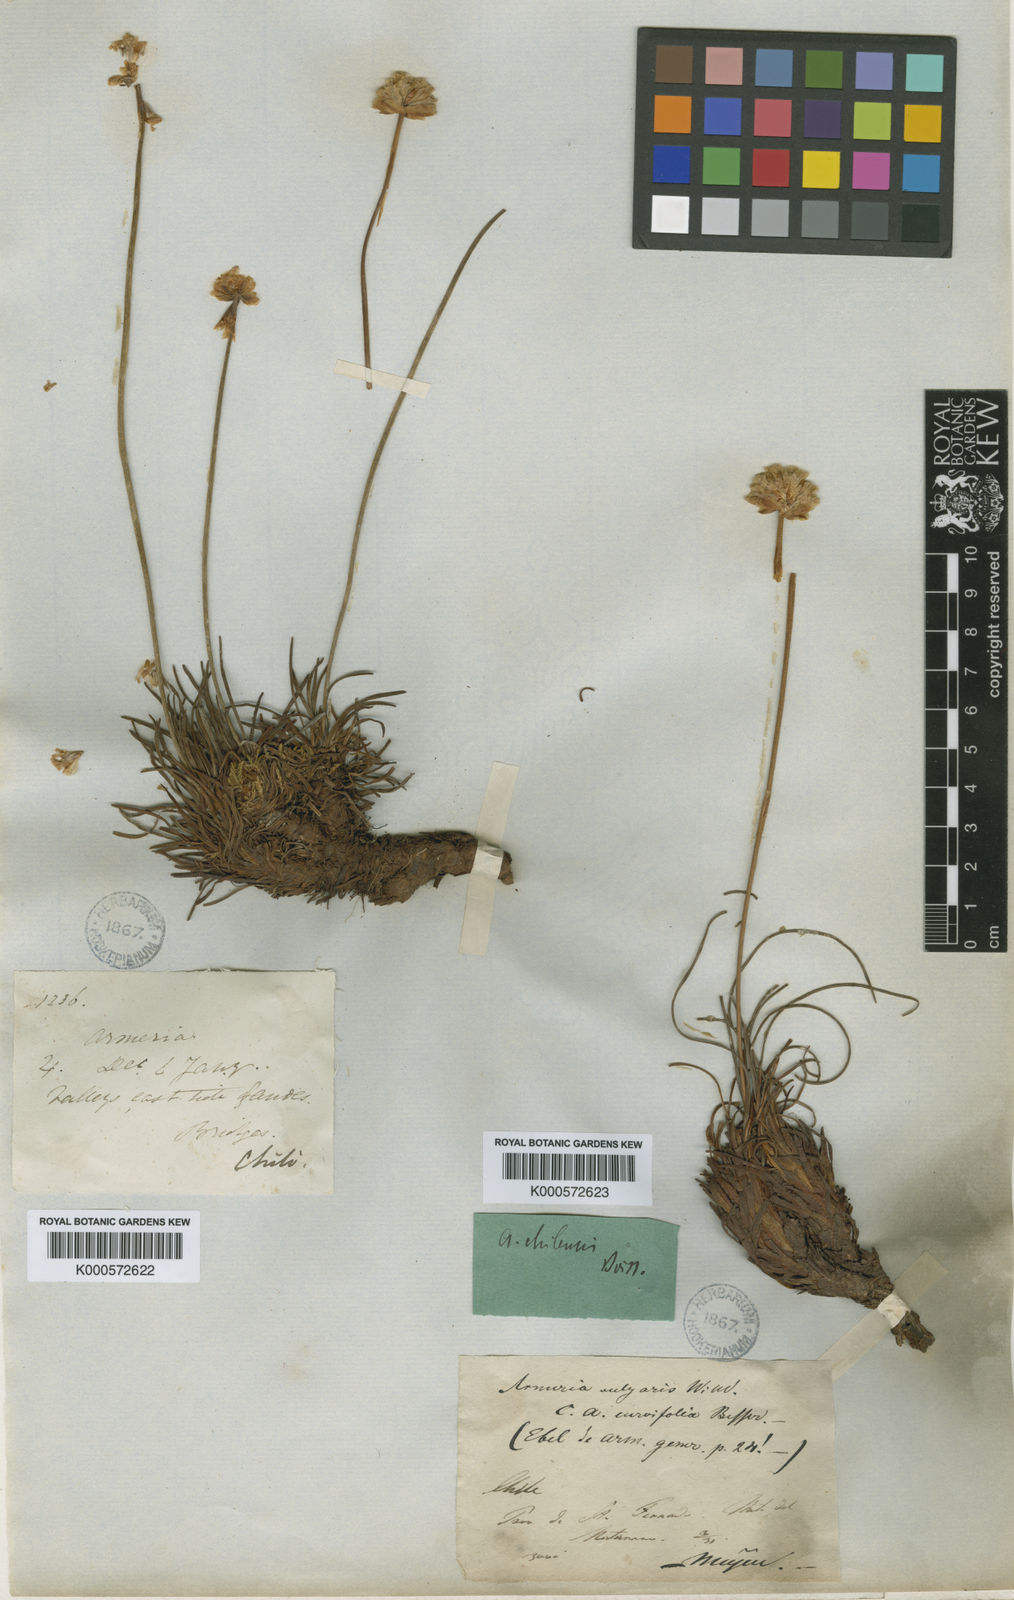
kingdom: Plantae
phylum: Tracheophyta
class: Magnoliopsida
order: Caryophyllales
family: Plumbaginaceae
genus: Armeria
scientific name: Armeria curvifolia
